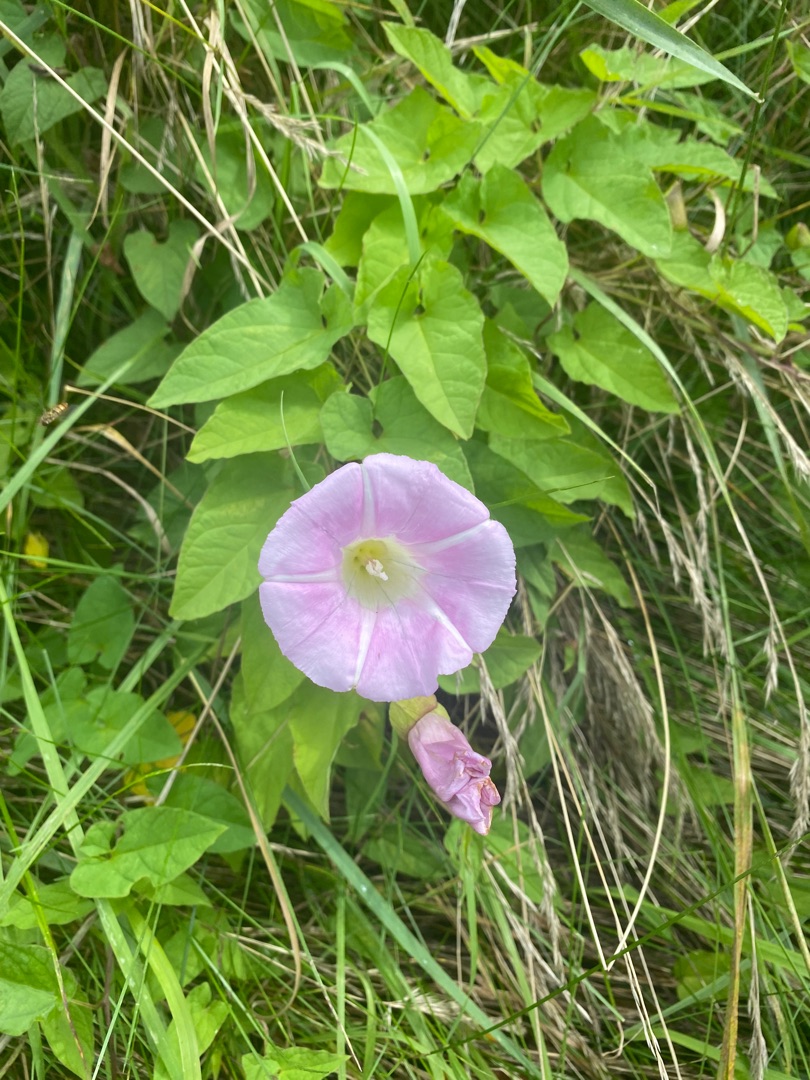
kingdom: Plantae
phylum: Tracheophyta
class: Magnoliopsida
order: Solanales
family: Convolvulaceae
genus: Calystegia
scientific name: Calystegia pulchra
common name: Have-snerle
